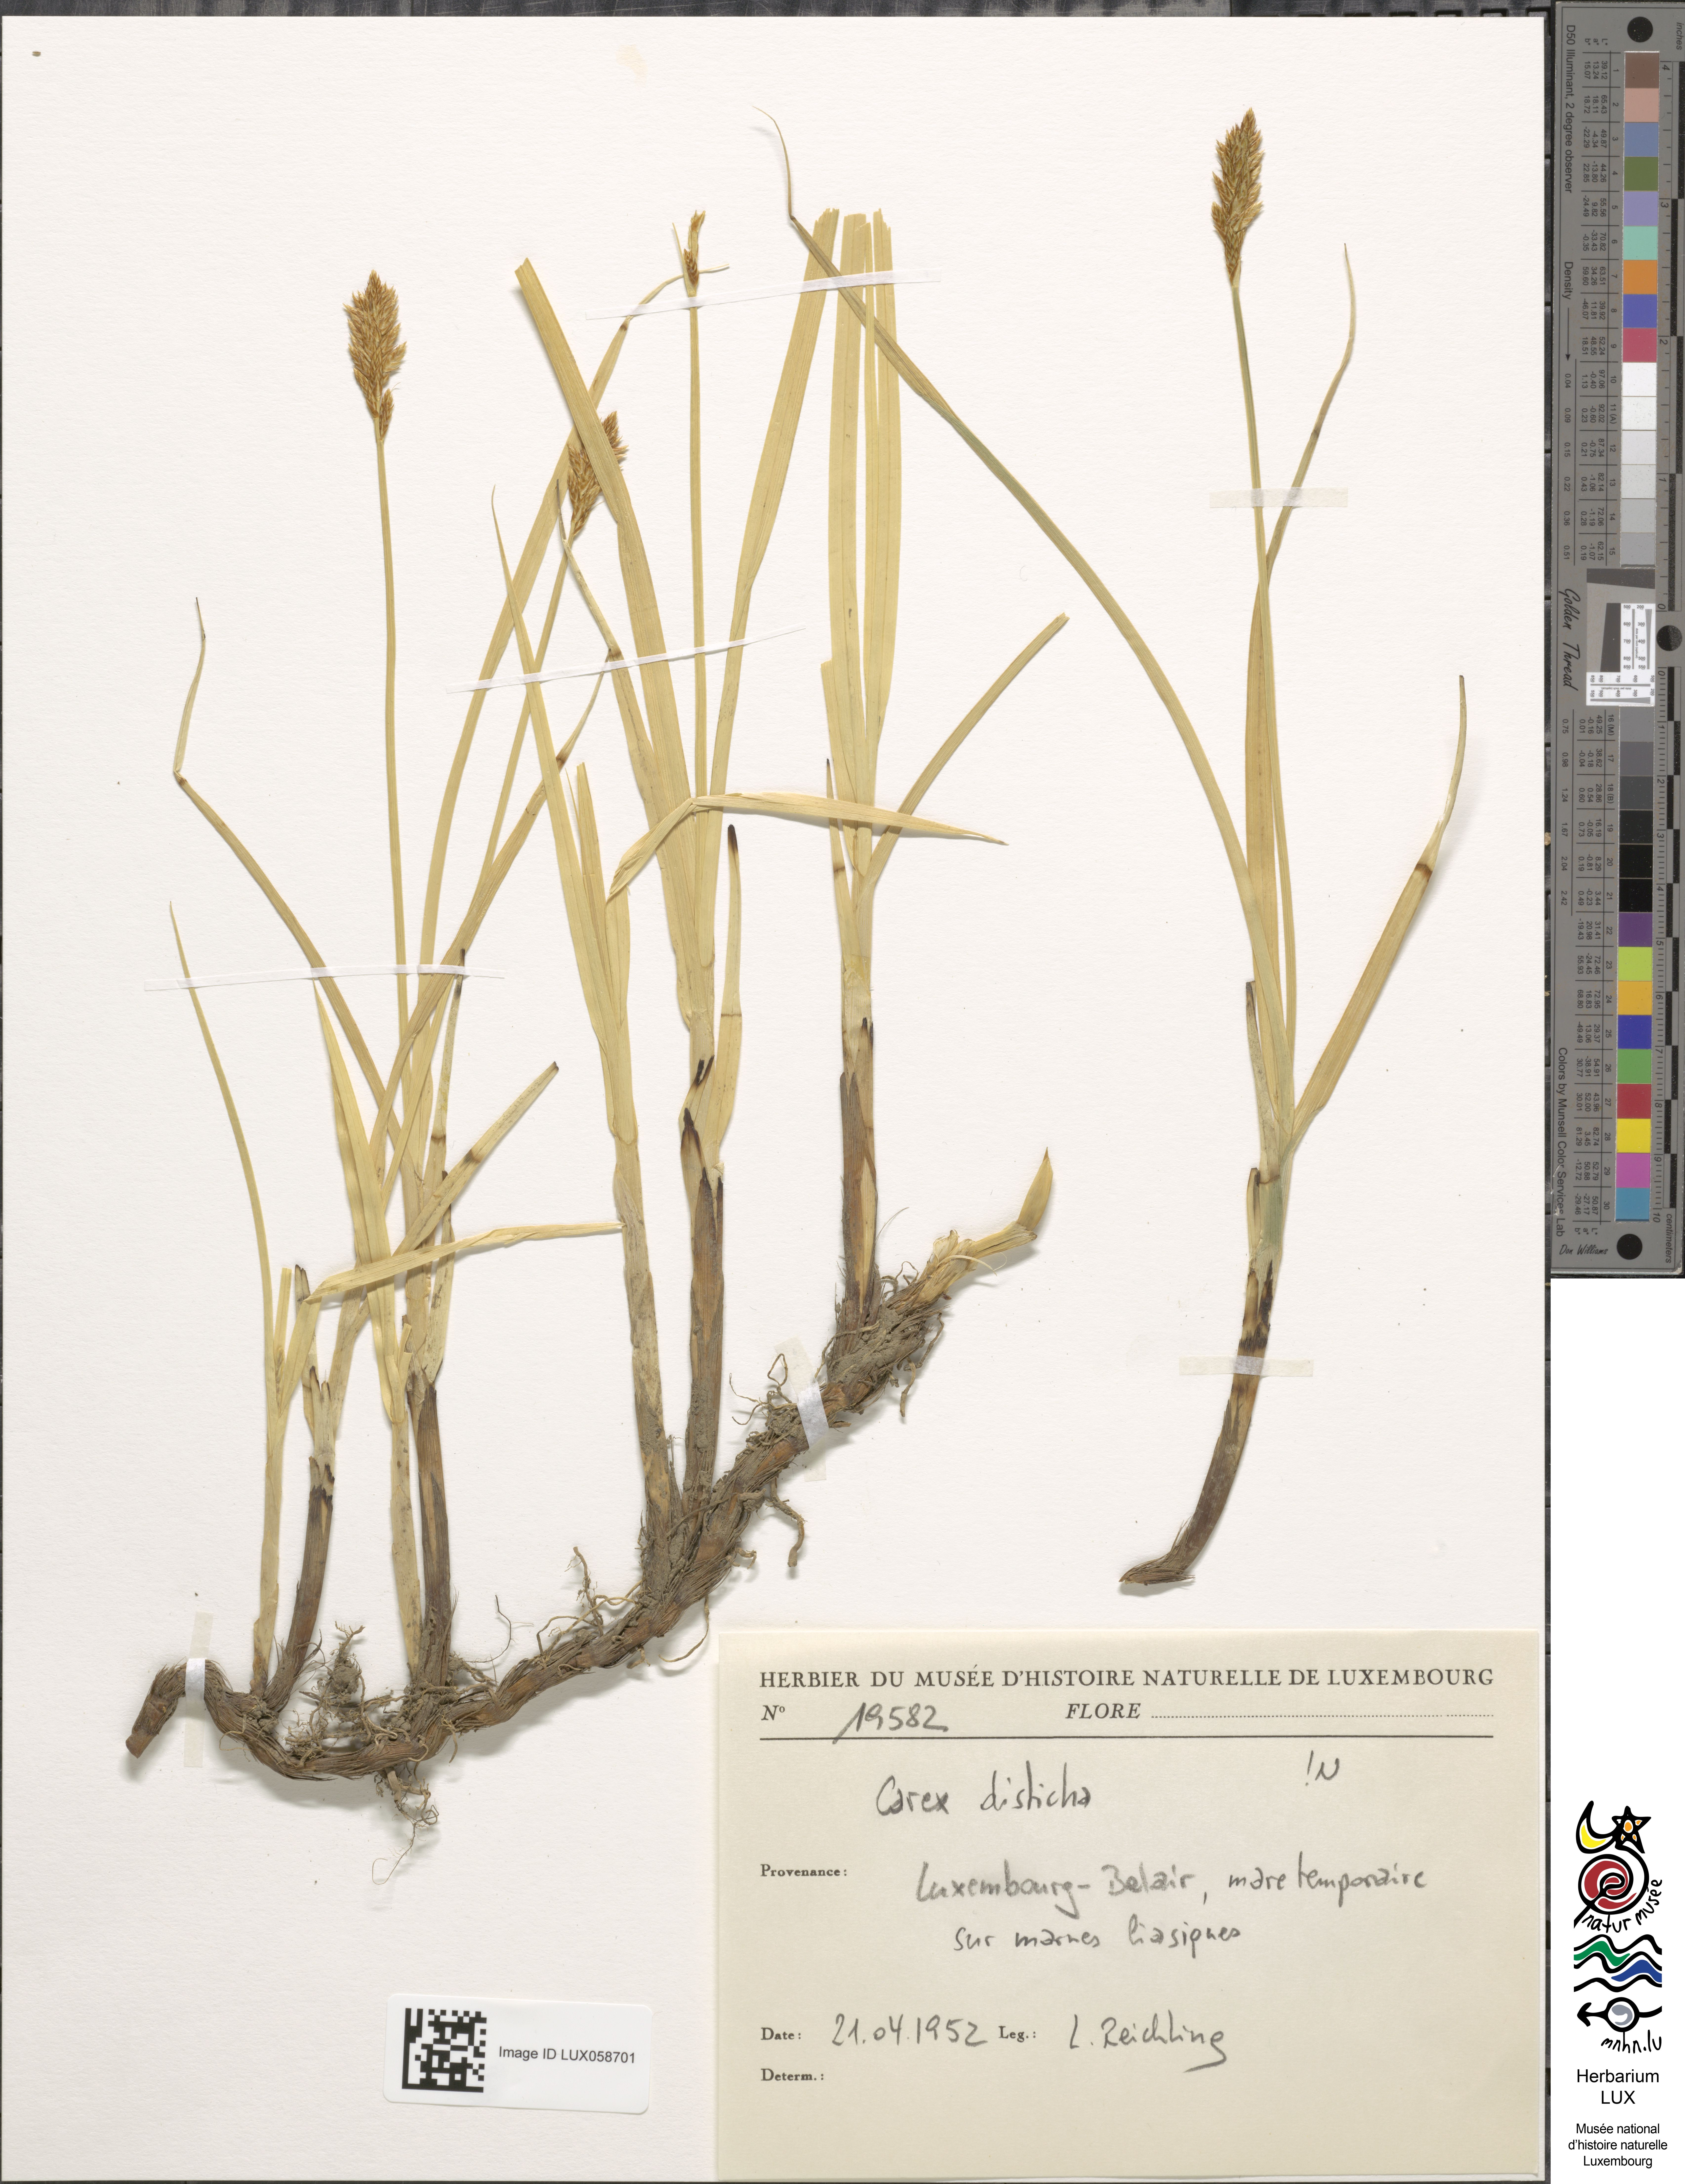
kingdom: Plantae
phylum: Tracheophyta
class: Liliopsida
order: Poales
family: Cyperaceae
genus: Carex
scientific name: Carex disticha
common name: Brown sedge
